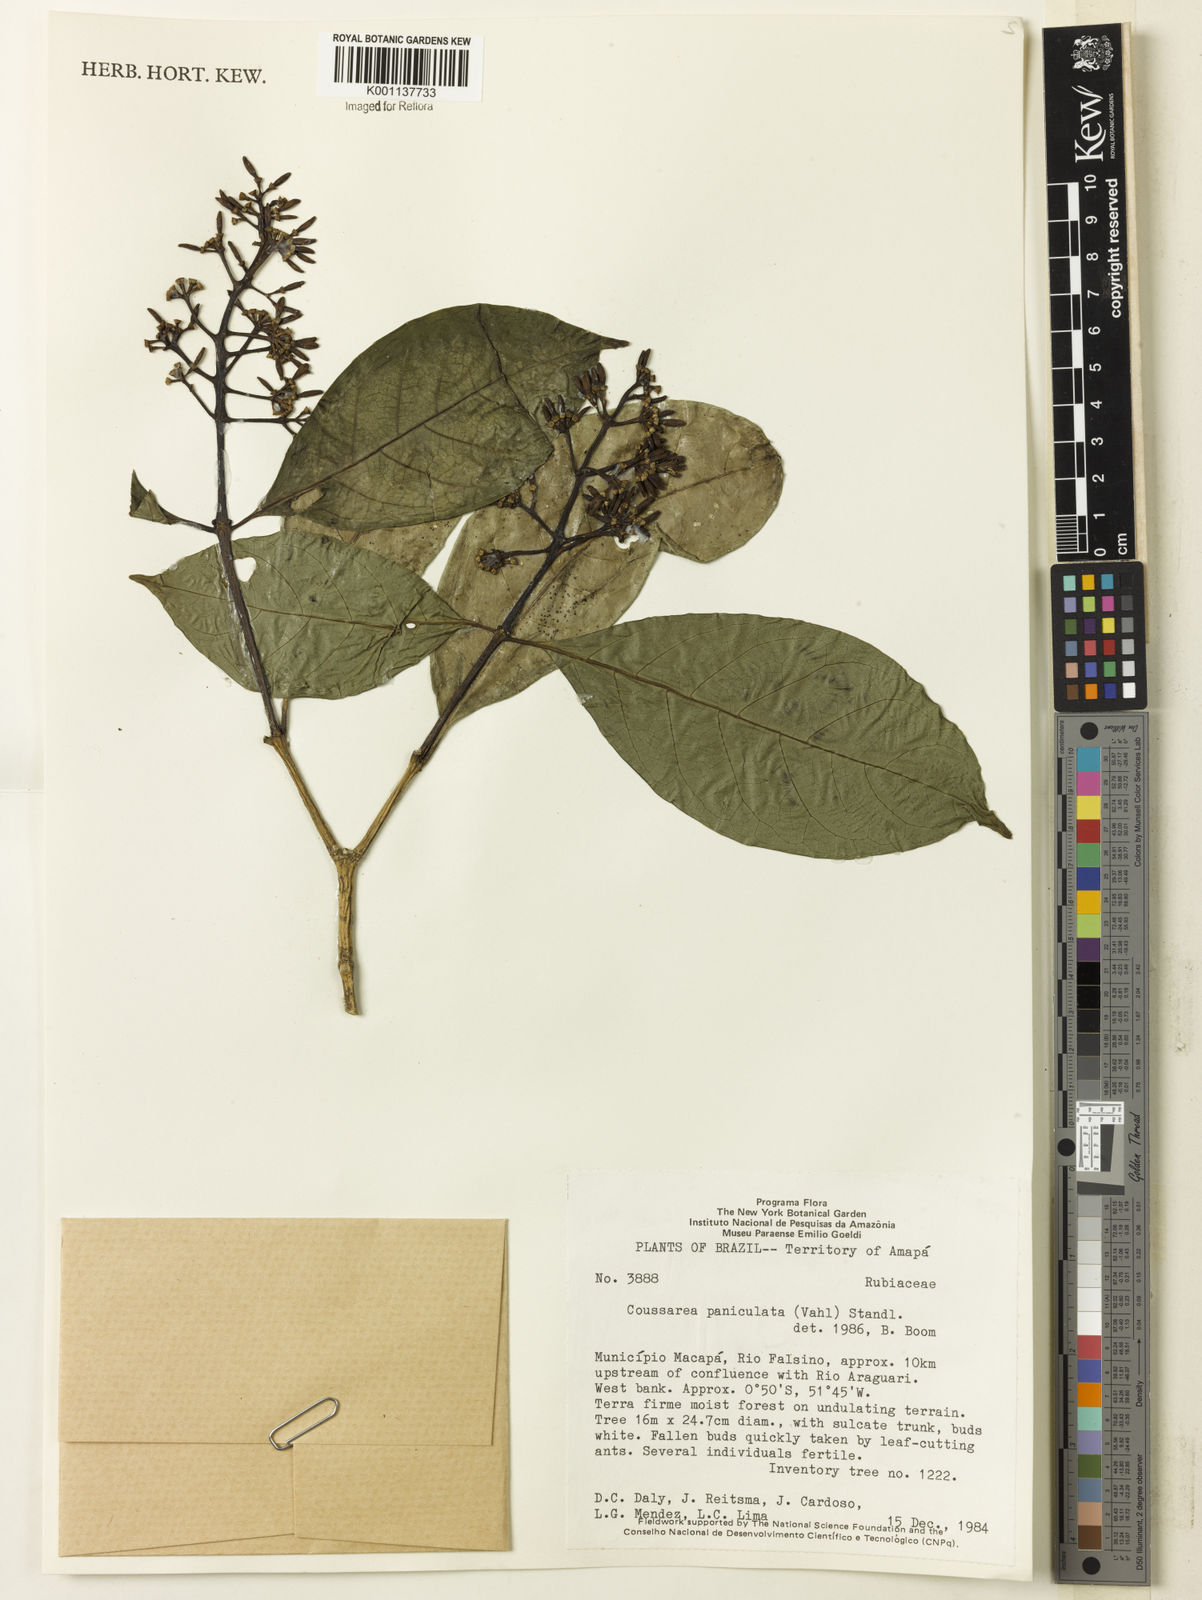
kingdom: Plantae
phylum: Tracheophyta
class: Magnoliopsida
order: Gentianales
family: Rubiaceae
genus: Coussarea
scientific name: Coussarea paniculata
